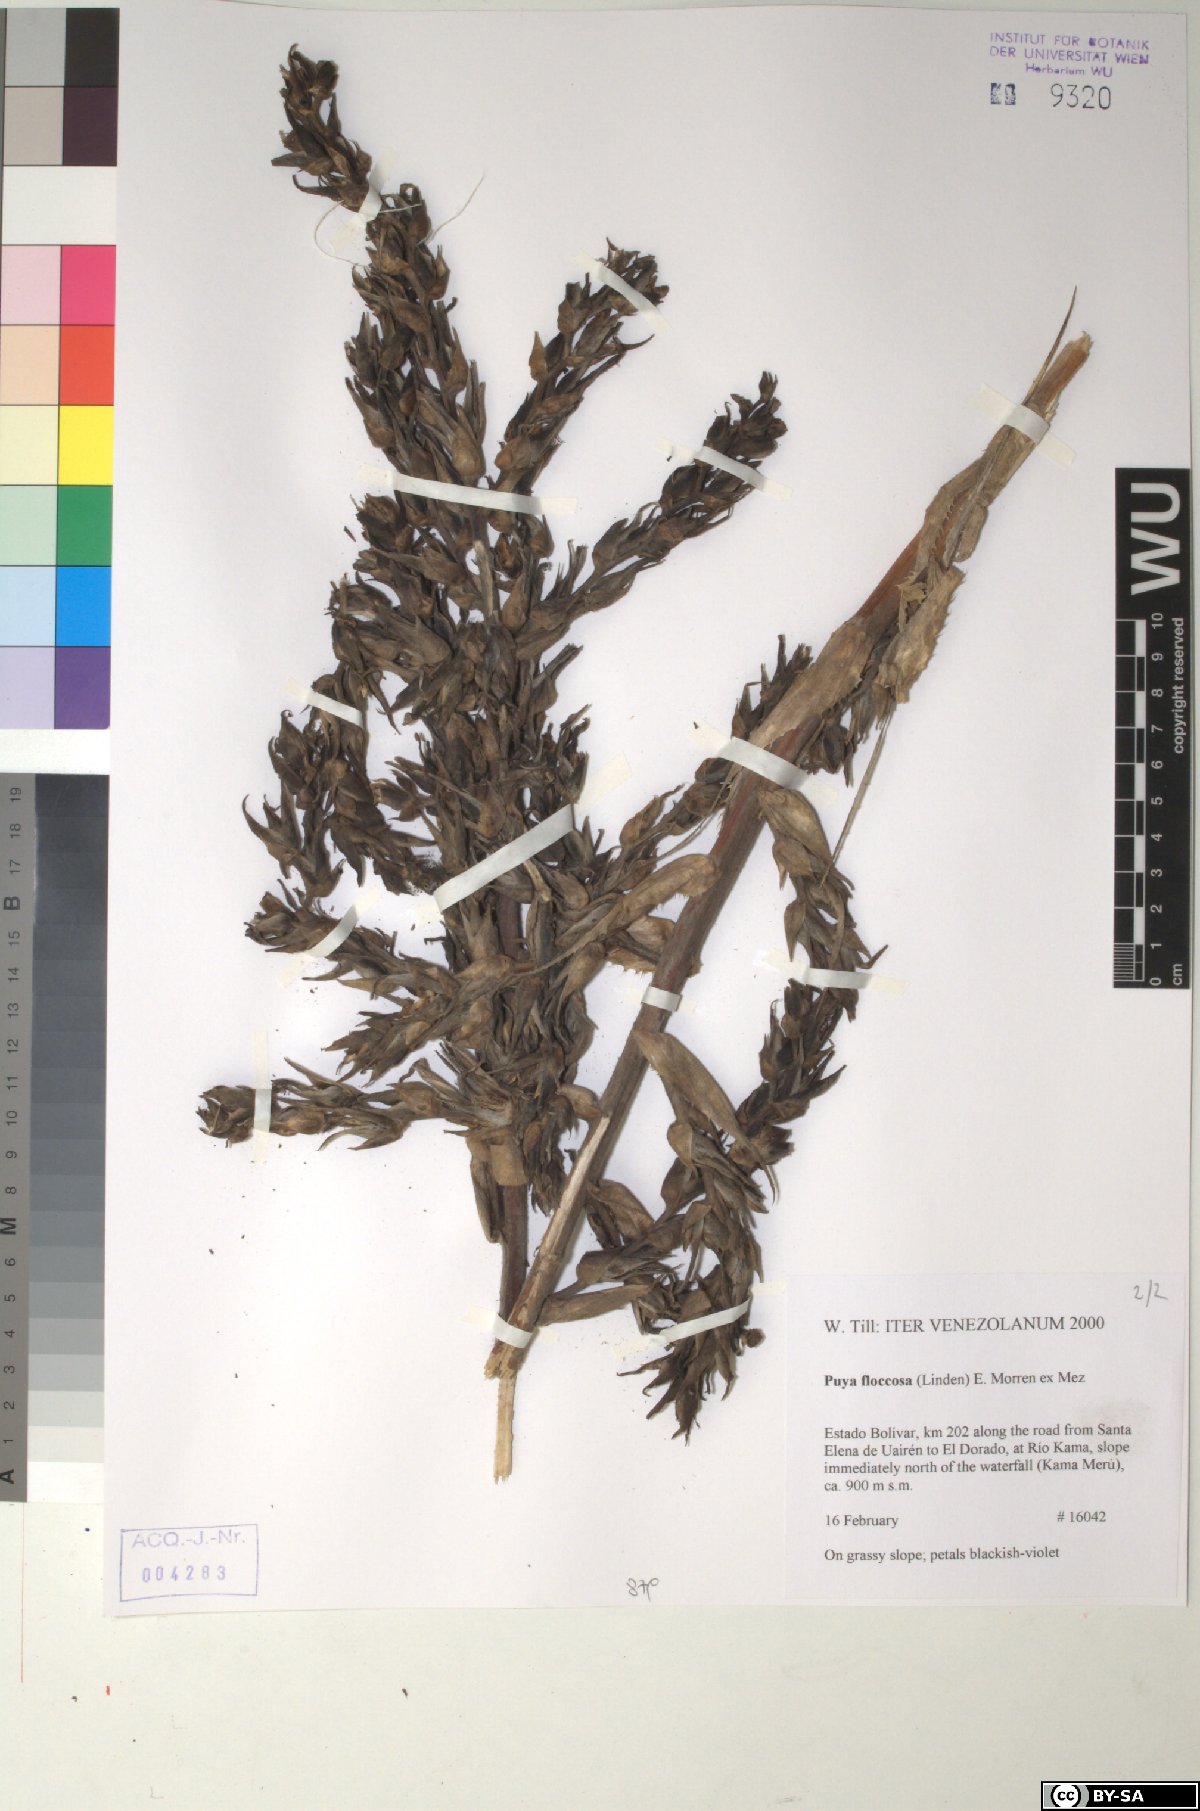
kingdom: Plantae
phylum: Tracheophyta
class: Liliopsida
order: Poales
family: Bromeliaceae
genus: Puya
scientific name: Puya floccosa
